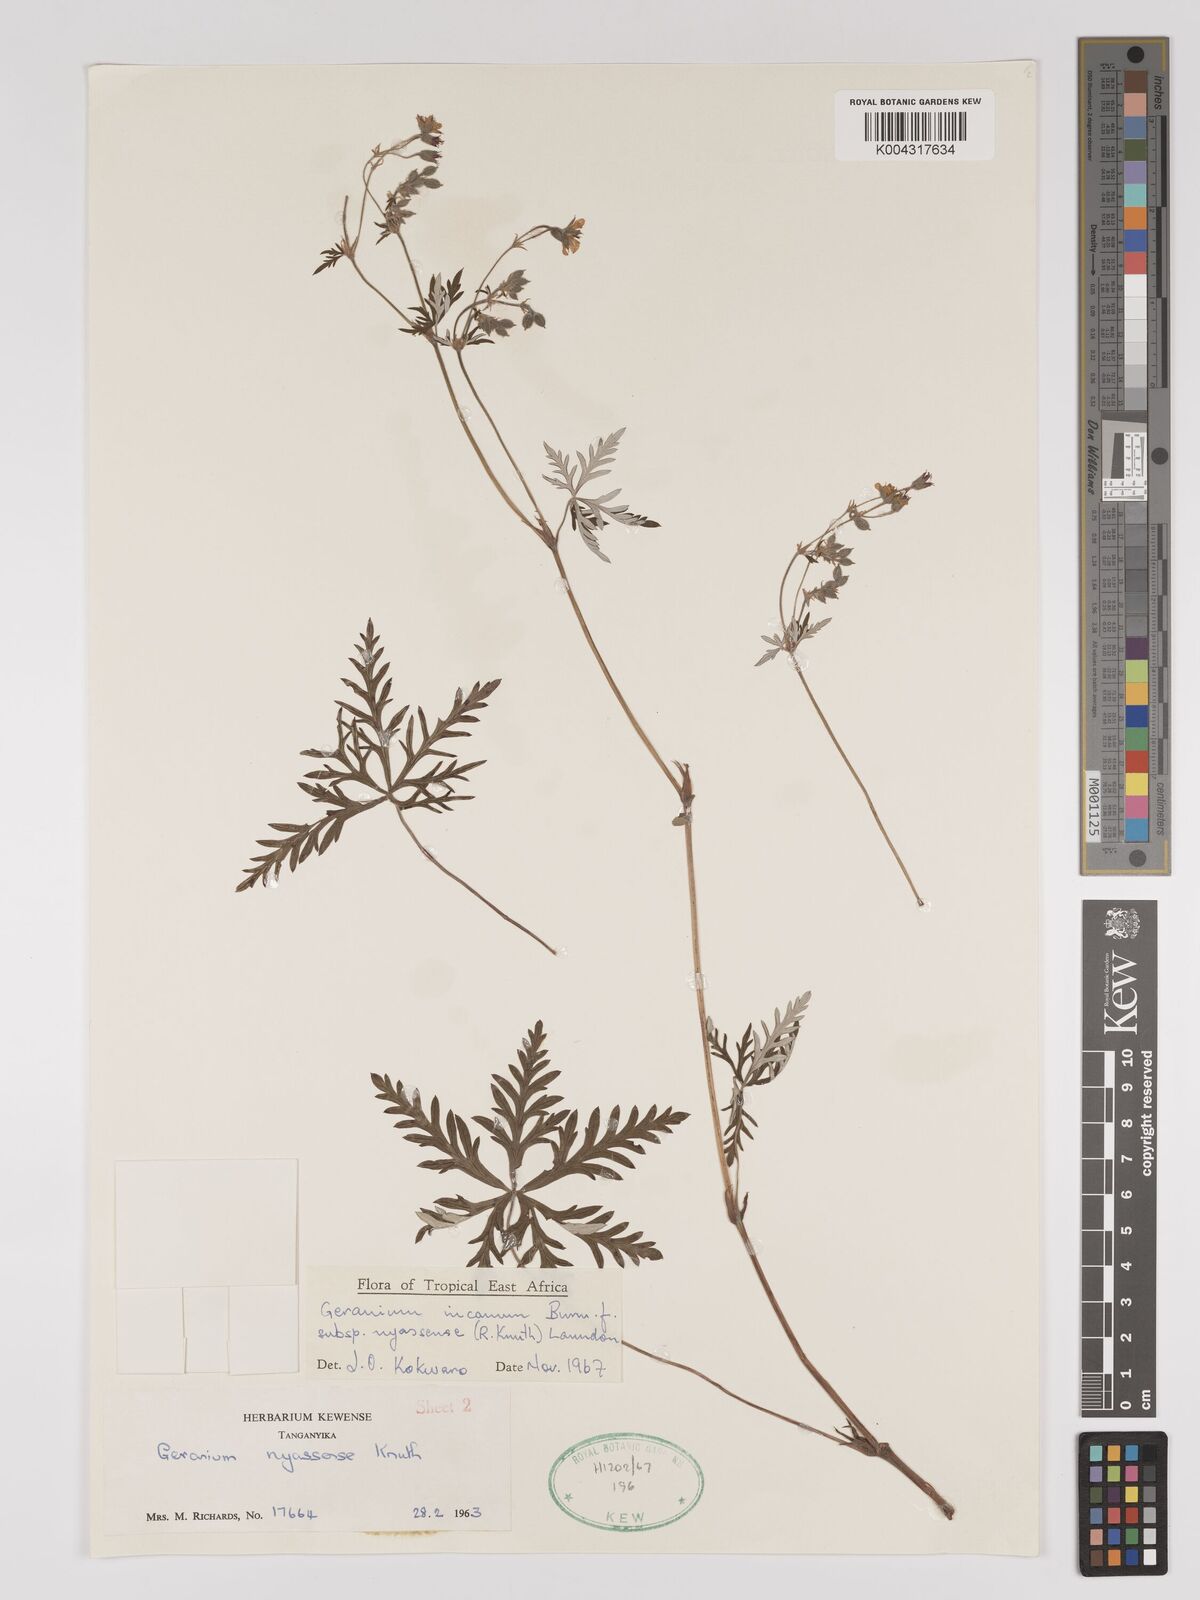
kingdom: Plantae
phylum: Tracheophyta
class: Magnoliopsida
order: Geraniales
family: Geraniaceae
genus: Geranium
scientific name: Geranium incanum
